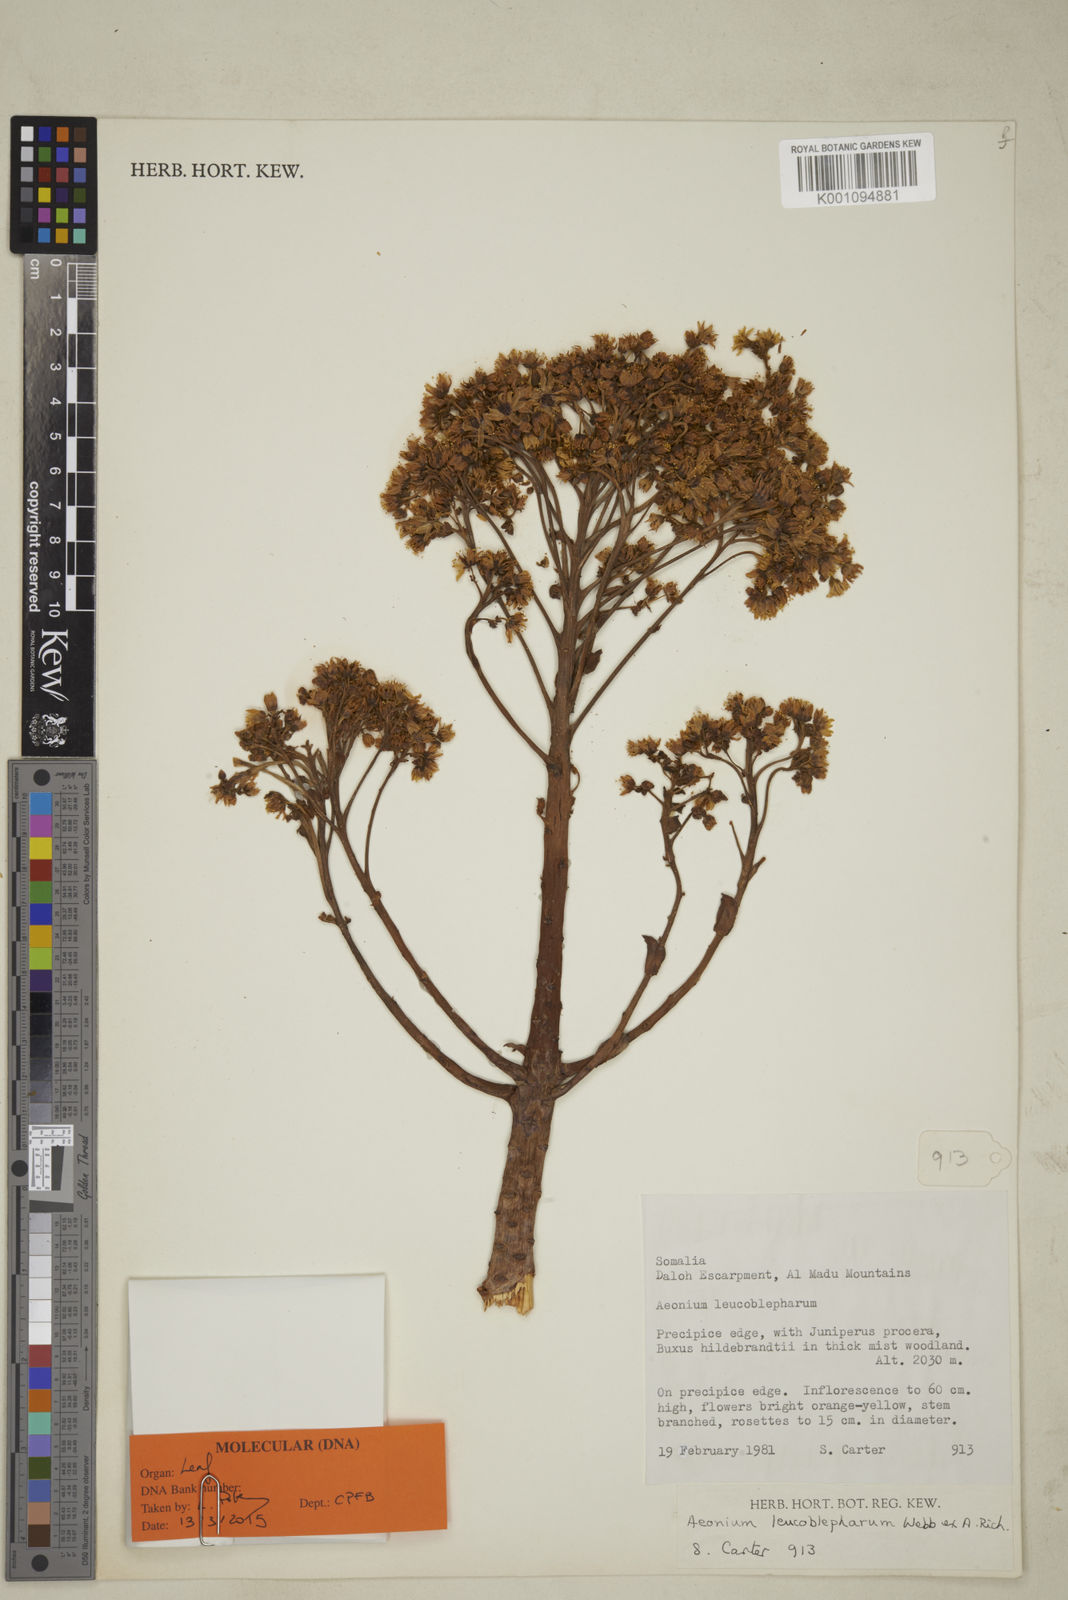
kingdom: Plantae
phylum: Tracheophyta
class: Magnoliopsida
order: Saxifragales
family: Crassulaceae
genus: Aeonium
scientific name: Aeonium leucoblepharum
